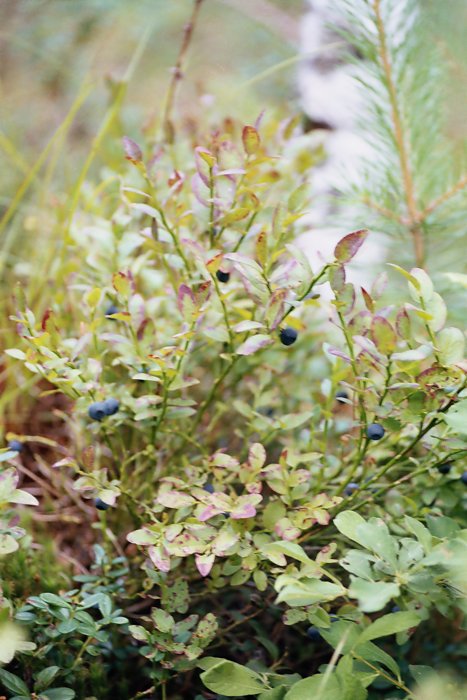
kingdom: Plantae
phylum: Tracheophyta
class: Magnoliopsida
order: Ericales
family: Ericaceae
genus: Vaccinium
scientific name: Vaccinium myrtillus
